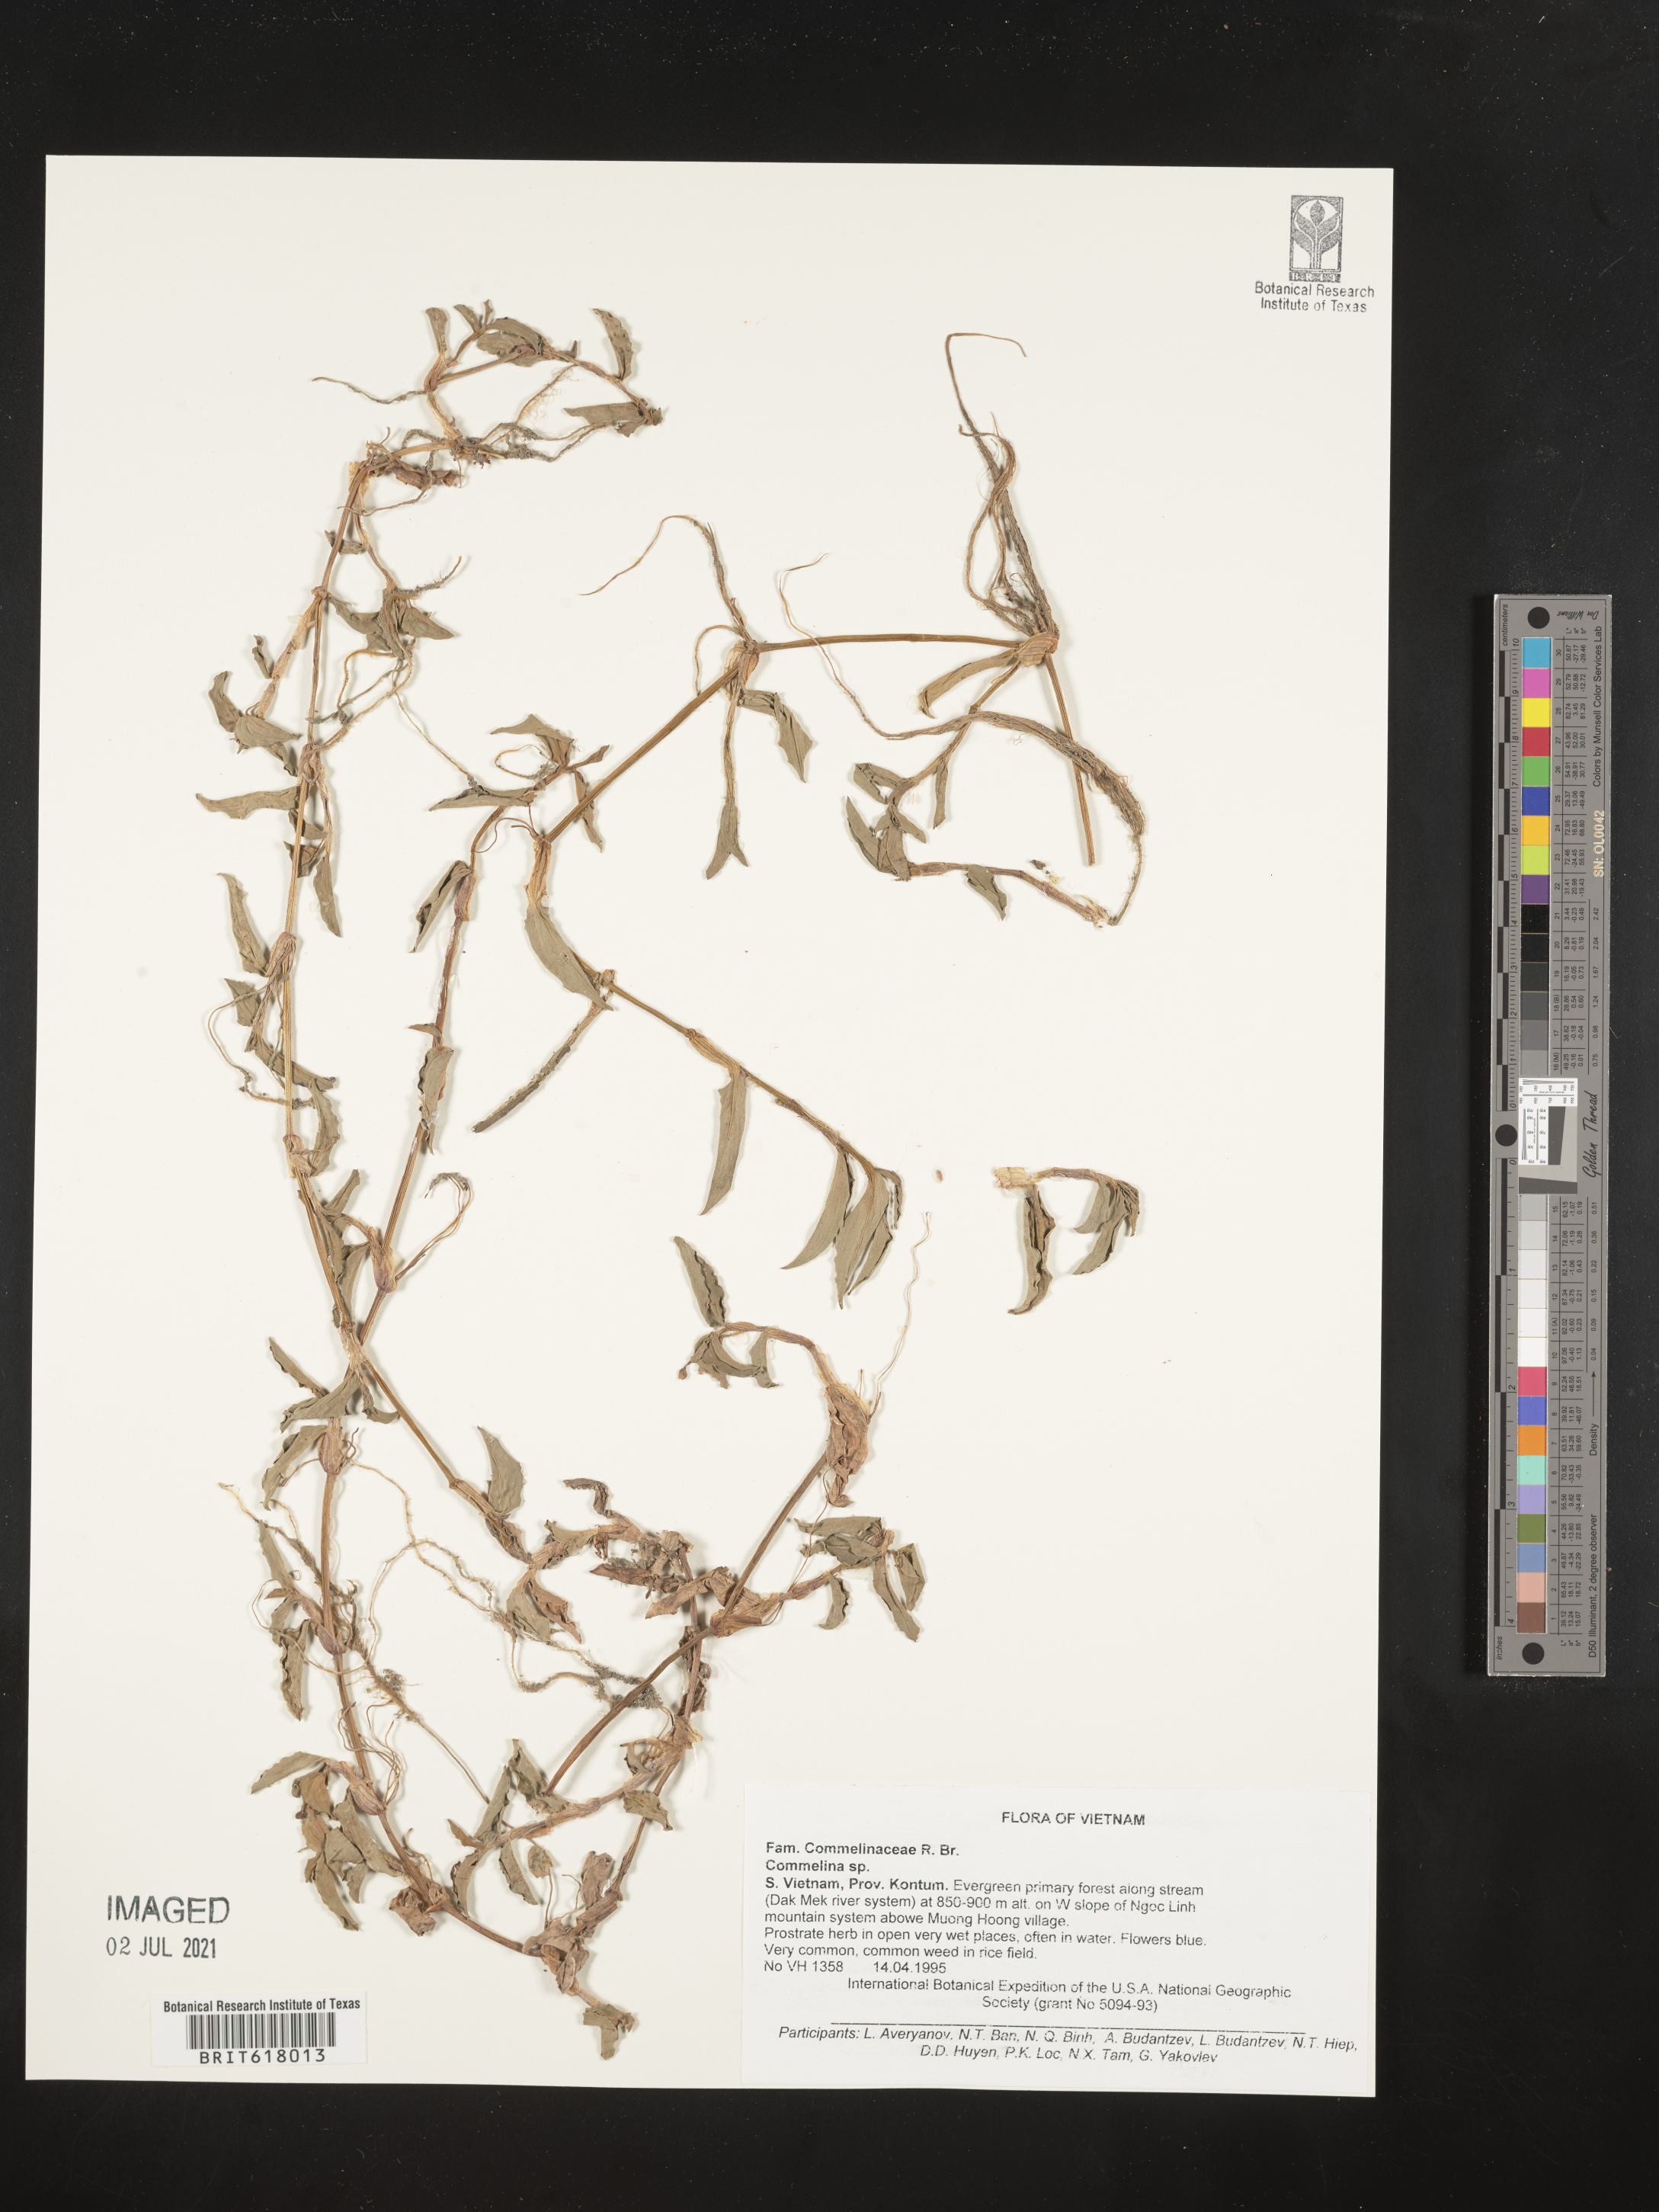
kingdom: Plantae
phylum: Tracheophyta
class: Liliopsida
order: Commelinales
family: Commelinaceae
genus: Commelina
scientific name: Commelina
